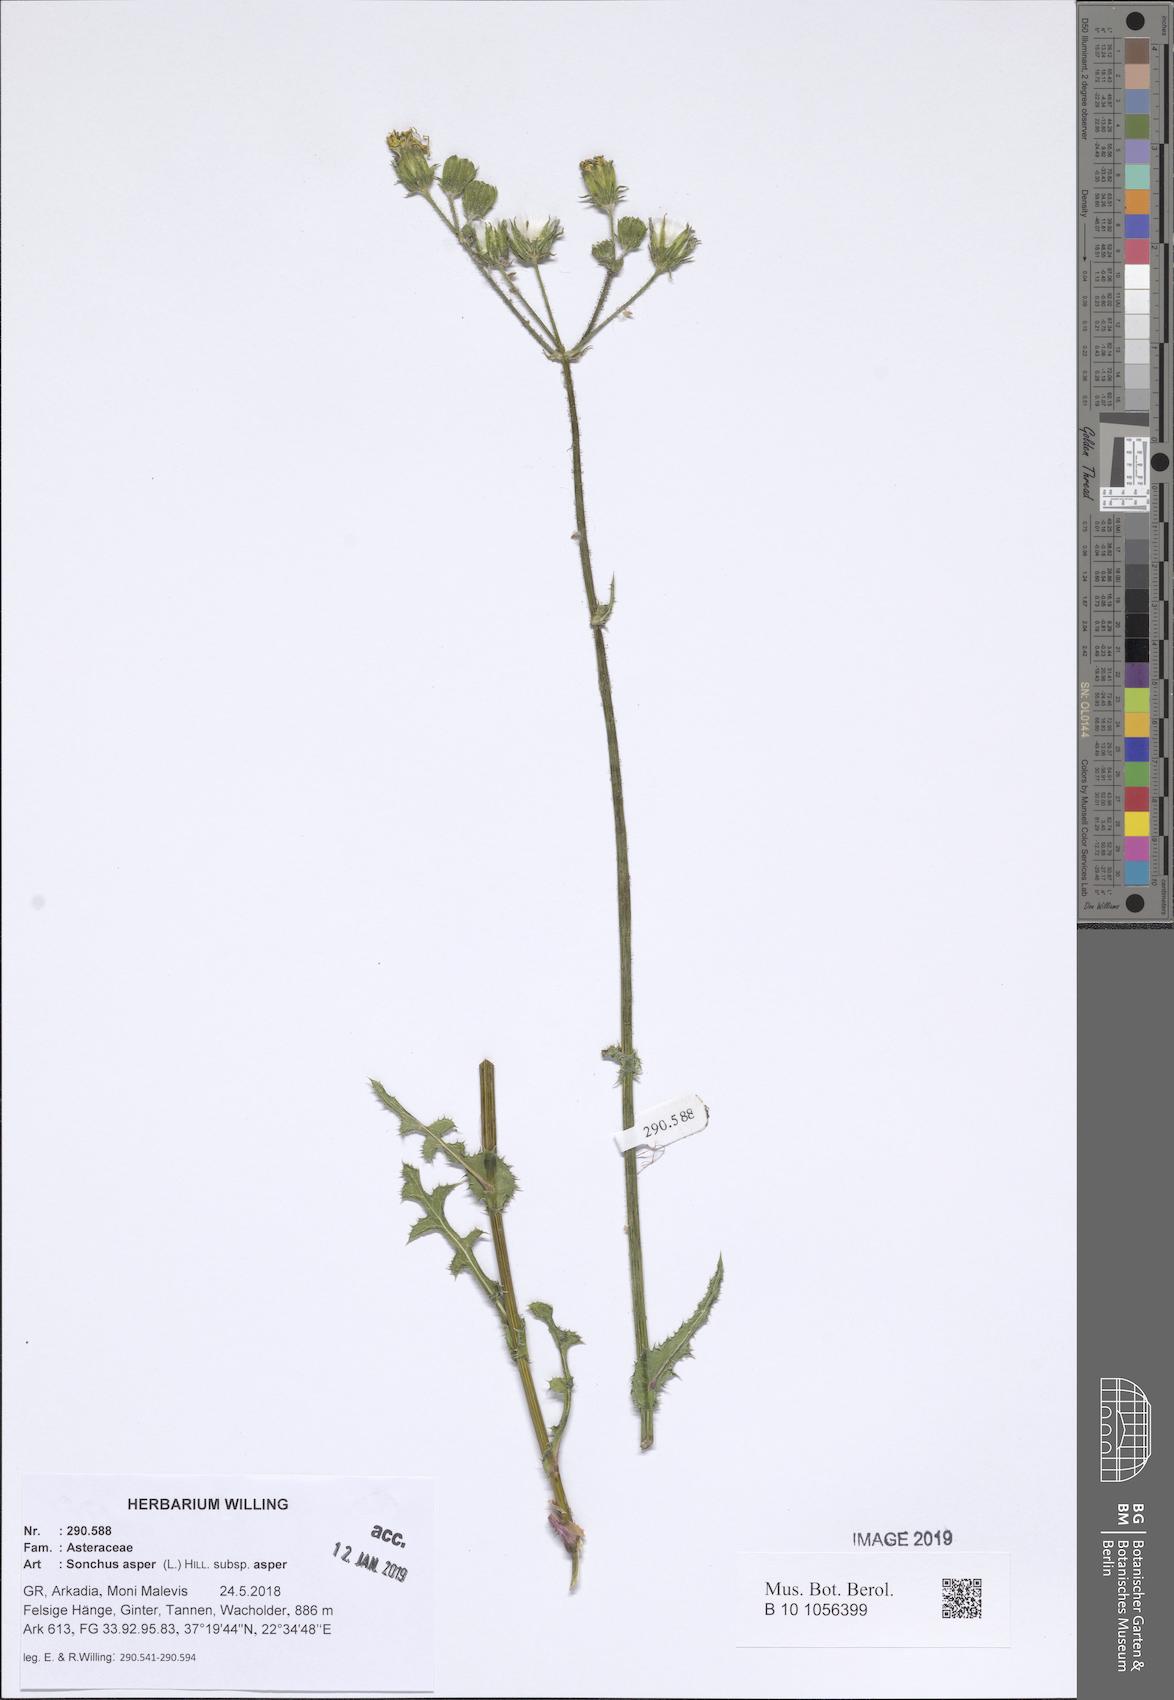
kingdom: Plantae
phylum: Tracheophyta
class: Magnoliopsida
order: Asterales
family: Asteraceae
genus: Sonchus
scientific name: Sonchus asper
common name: Prickly sow-thistle
